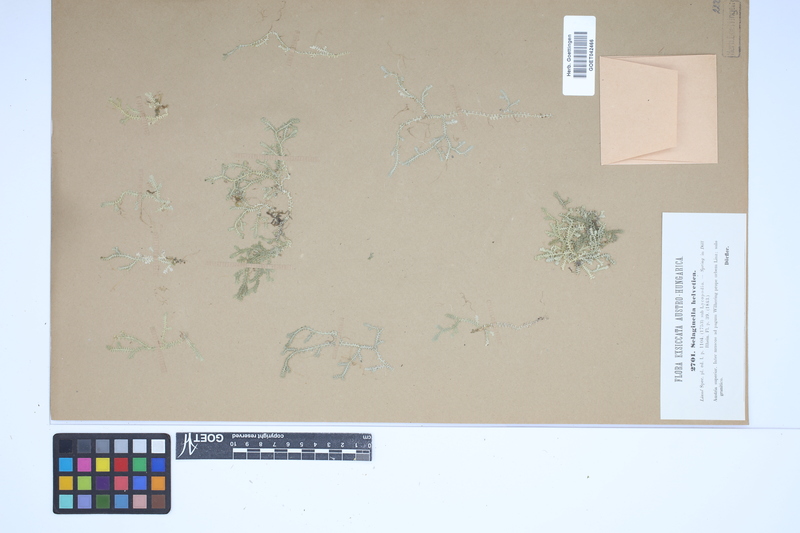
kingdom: Plantae
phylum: Tracheophyta
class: Lycopodiopsida
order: Selaginellales
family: Selaginellaceae
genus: Selaginella
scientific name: Selaginella helvetica
